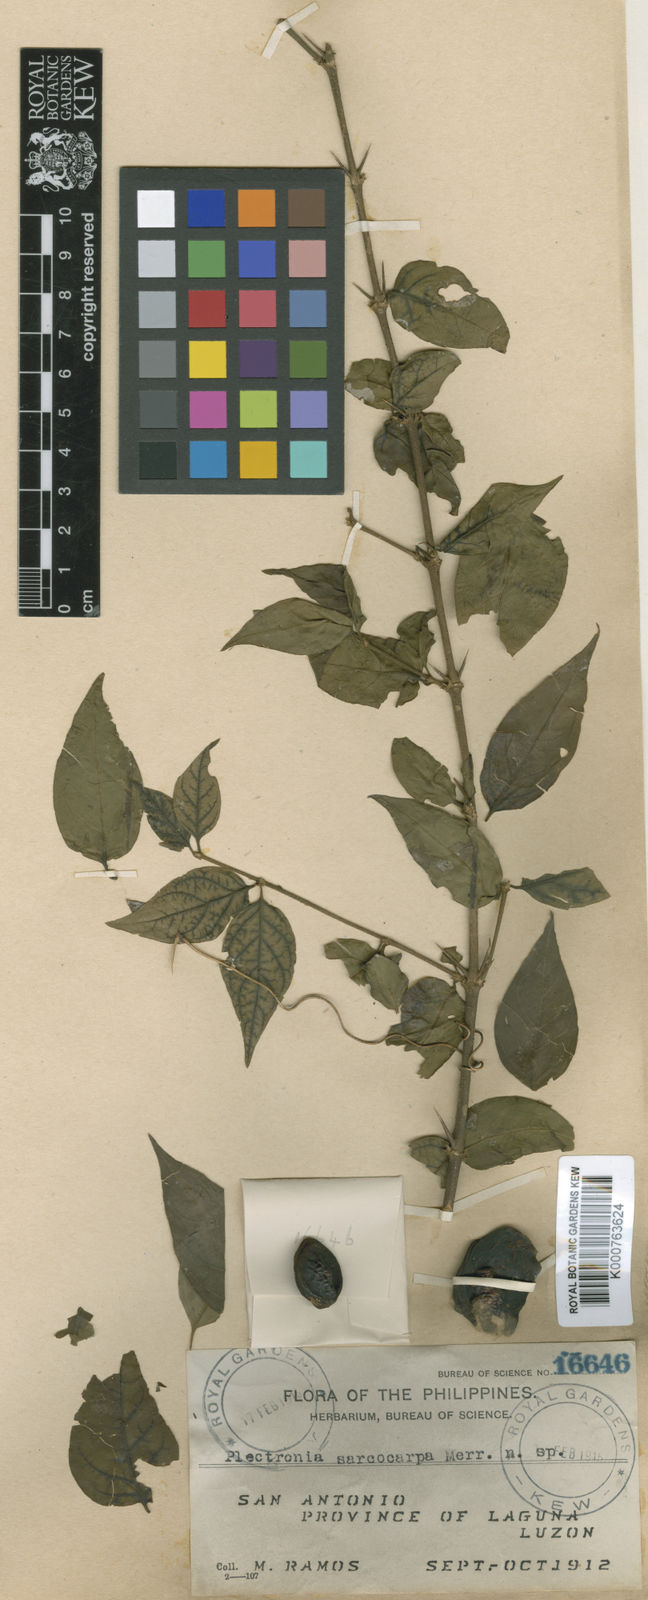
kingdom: Plantae
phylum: Tracheophyta
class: Magnoliopsida
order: Gentianales
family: Rubiaceae
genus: Canthium
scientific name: Canthium sarcocarpum
